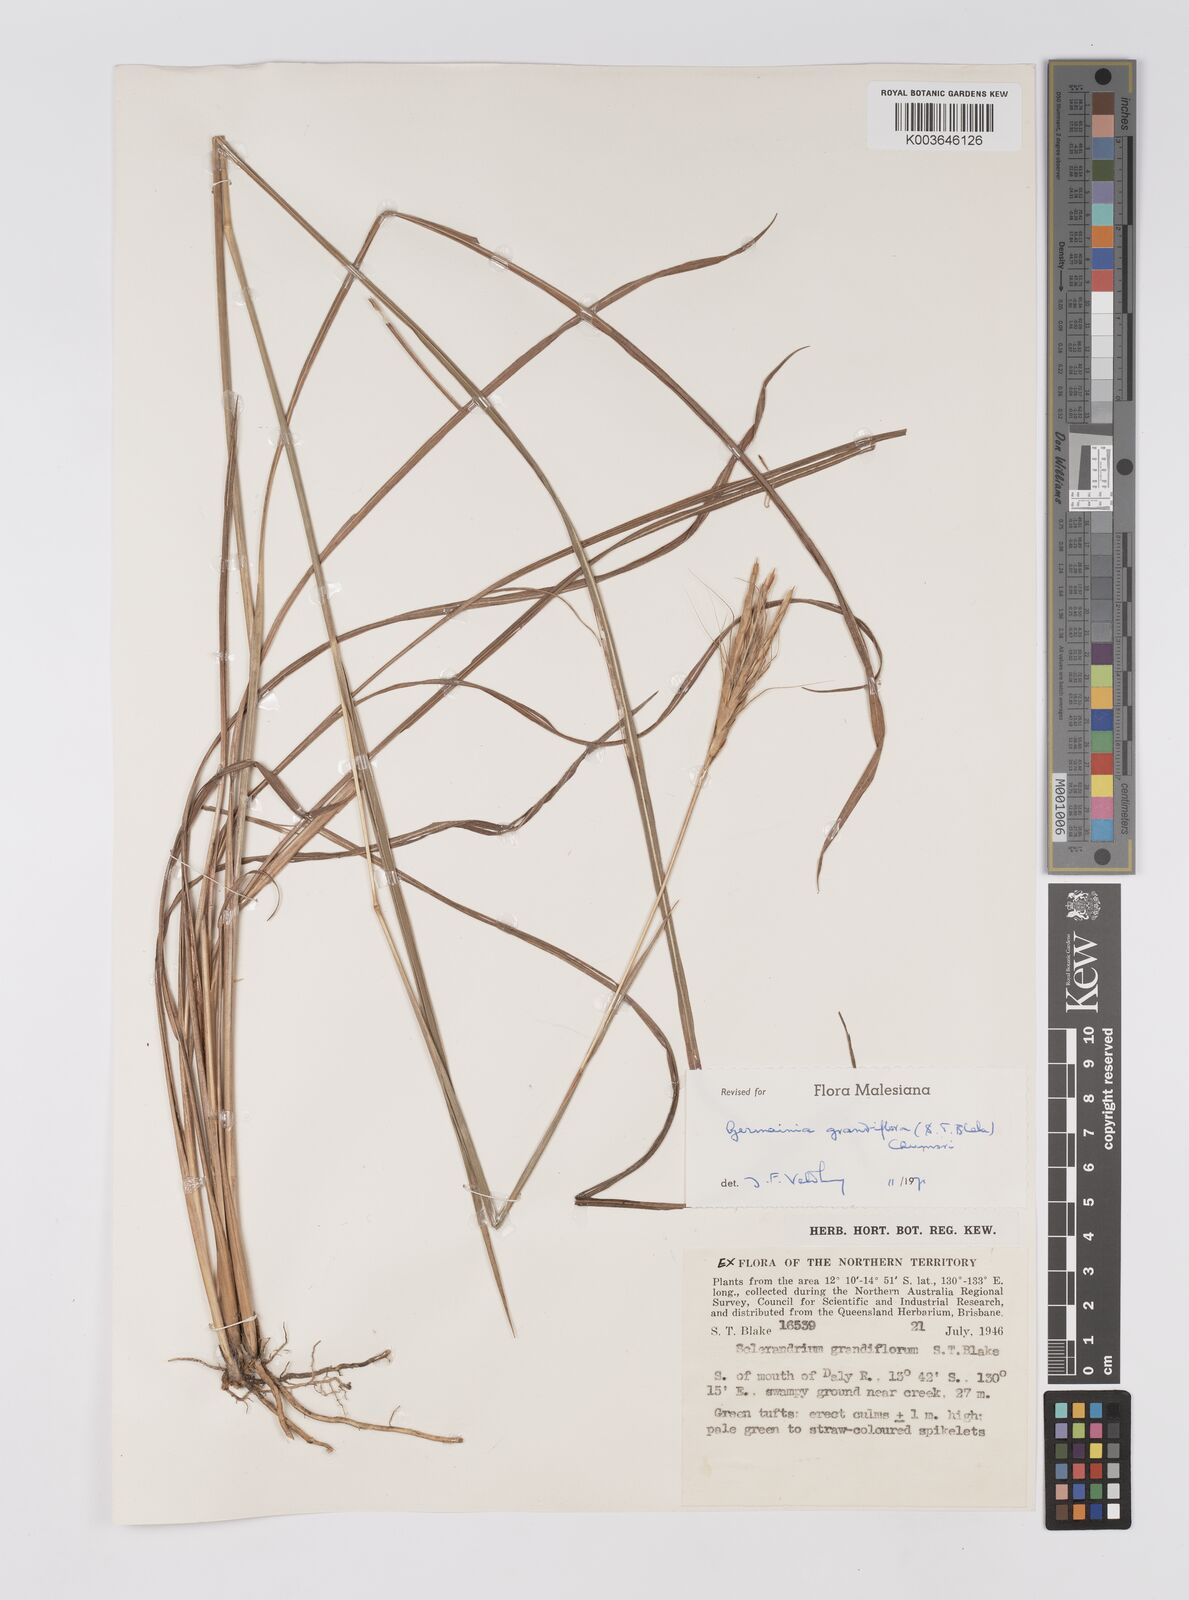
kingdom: Plantae
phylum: Tracheophyta
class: Liliopsida
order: Poales
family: Poaceae
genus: Germainia
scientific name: Germainia grandiflora
